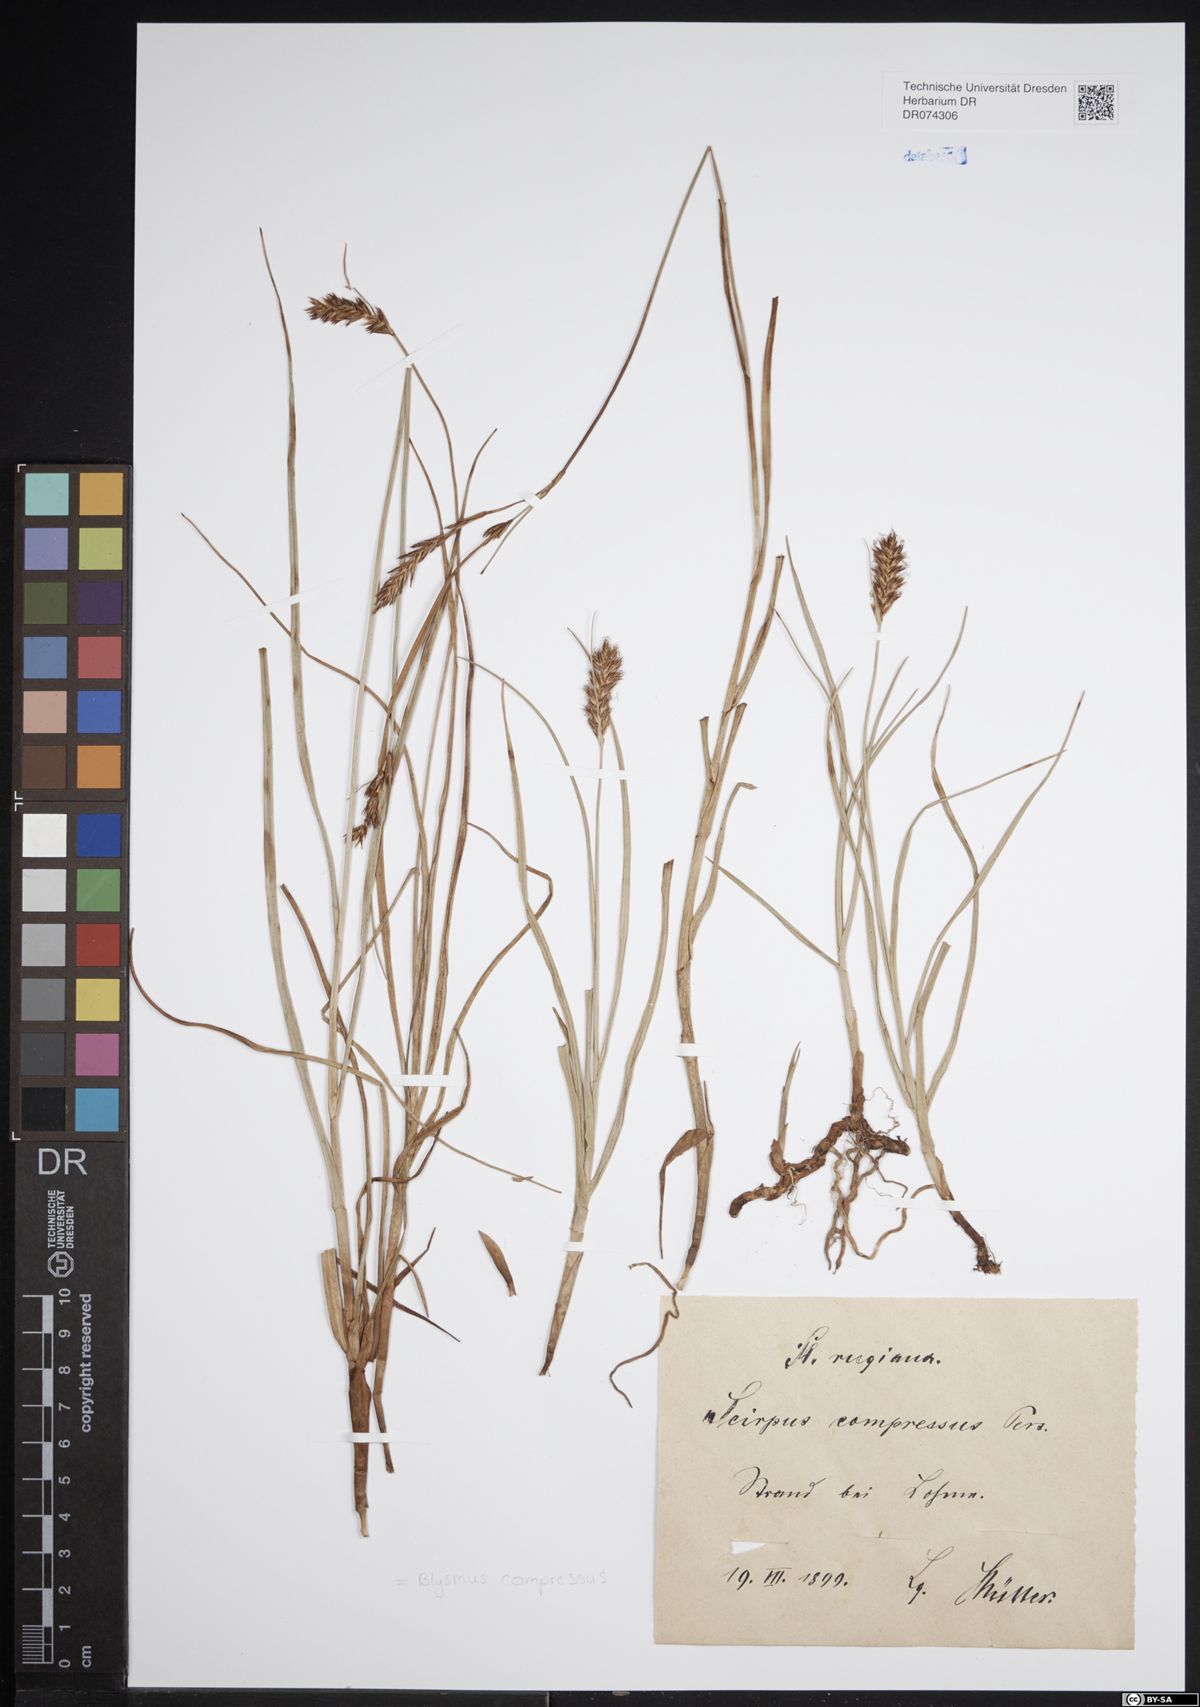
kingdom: Plantae
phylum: Tracheophyta
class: Liliopsida
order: Poales
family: Cyperaceae
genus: Blysmus
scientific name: Blysmus compressus
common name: Flat-sedge
